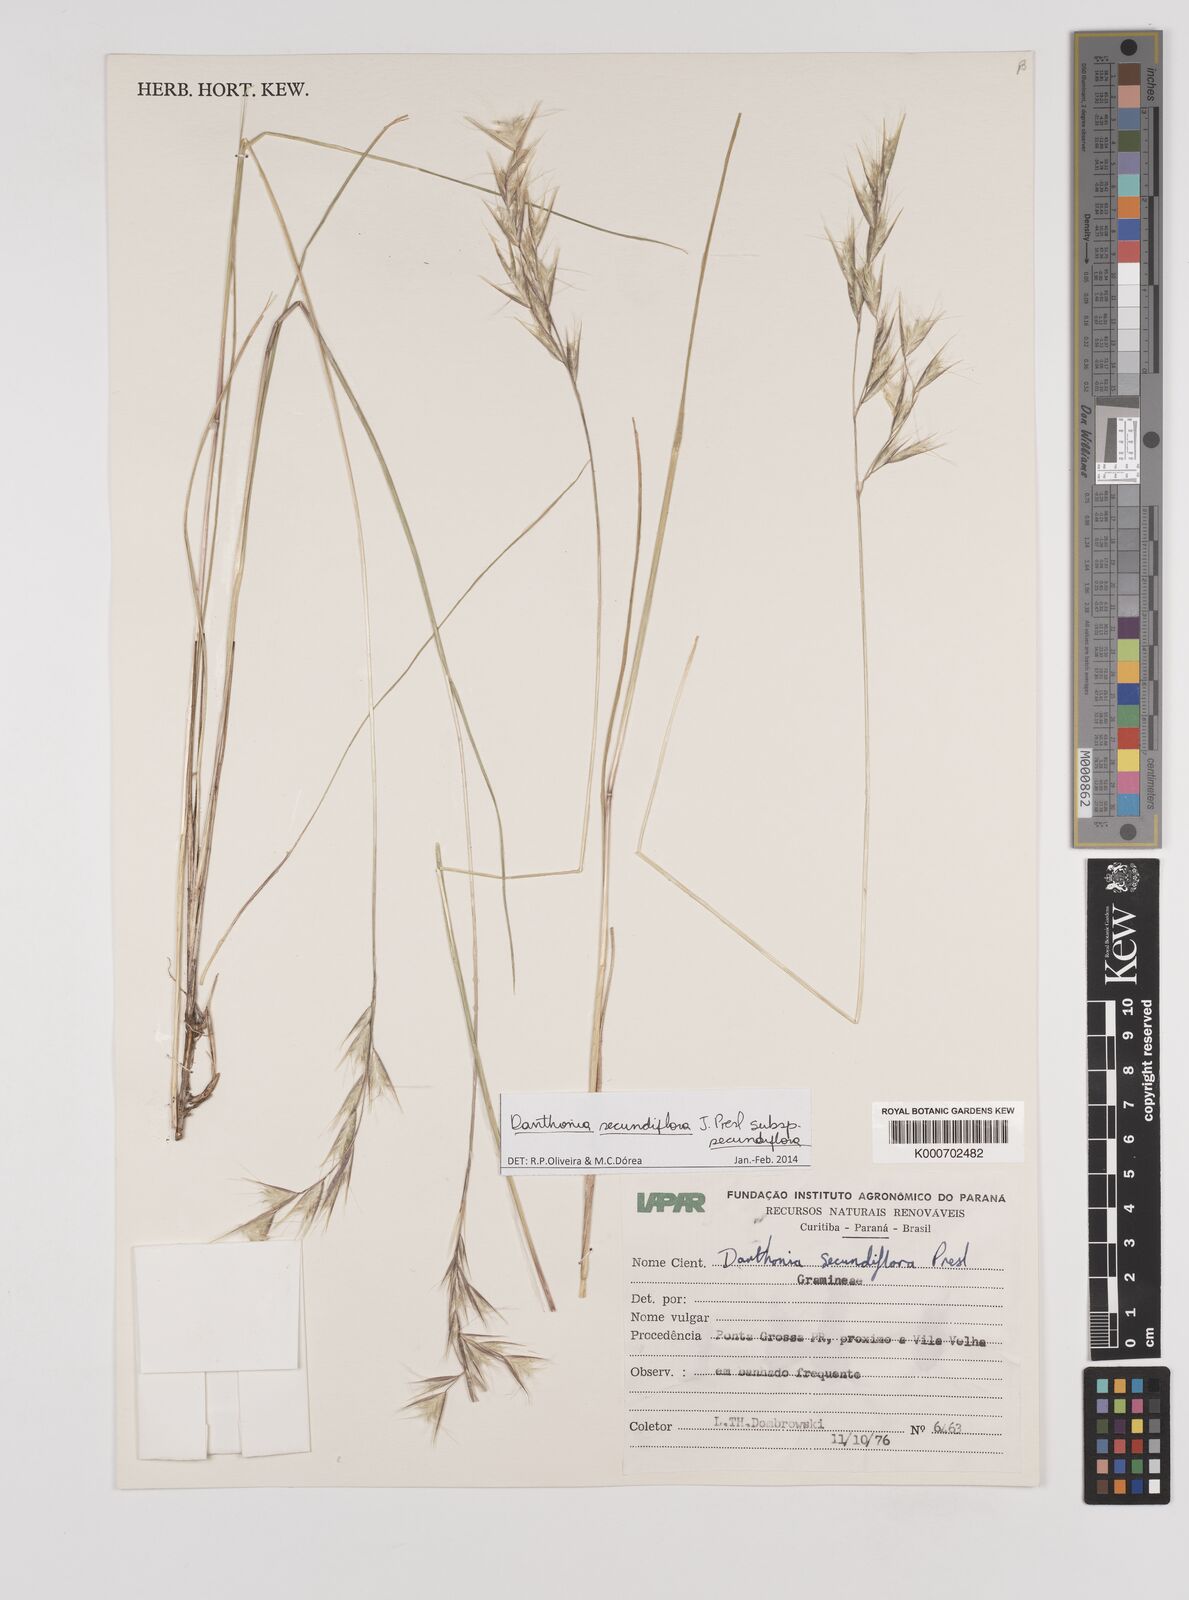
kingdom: Plantae
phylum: Tracheophyta
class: Liliopsida
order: Poales
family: Poaceae
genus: Danthonia
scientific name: Danthonia secundiflora
